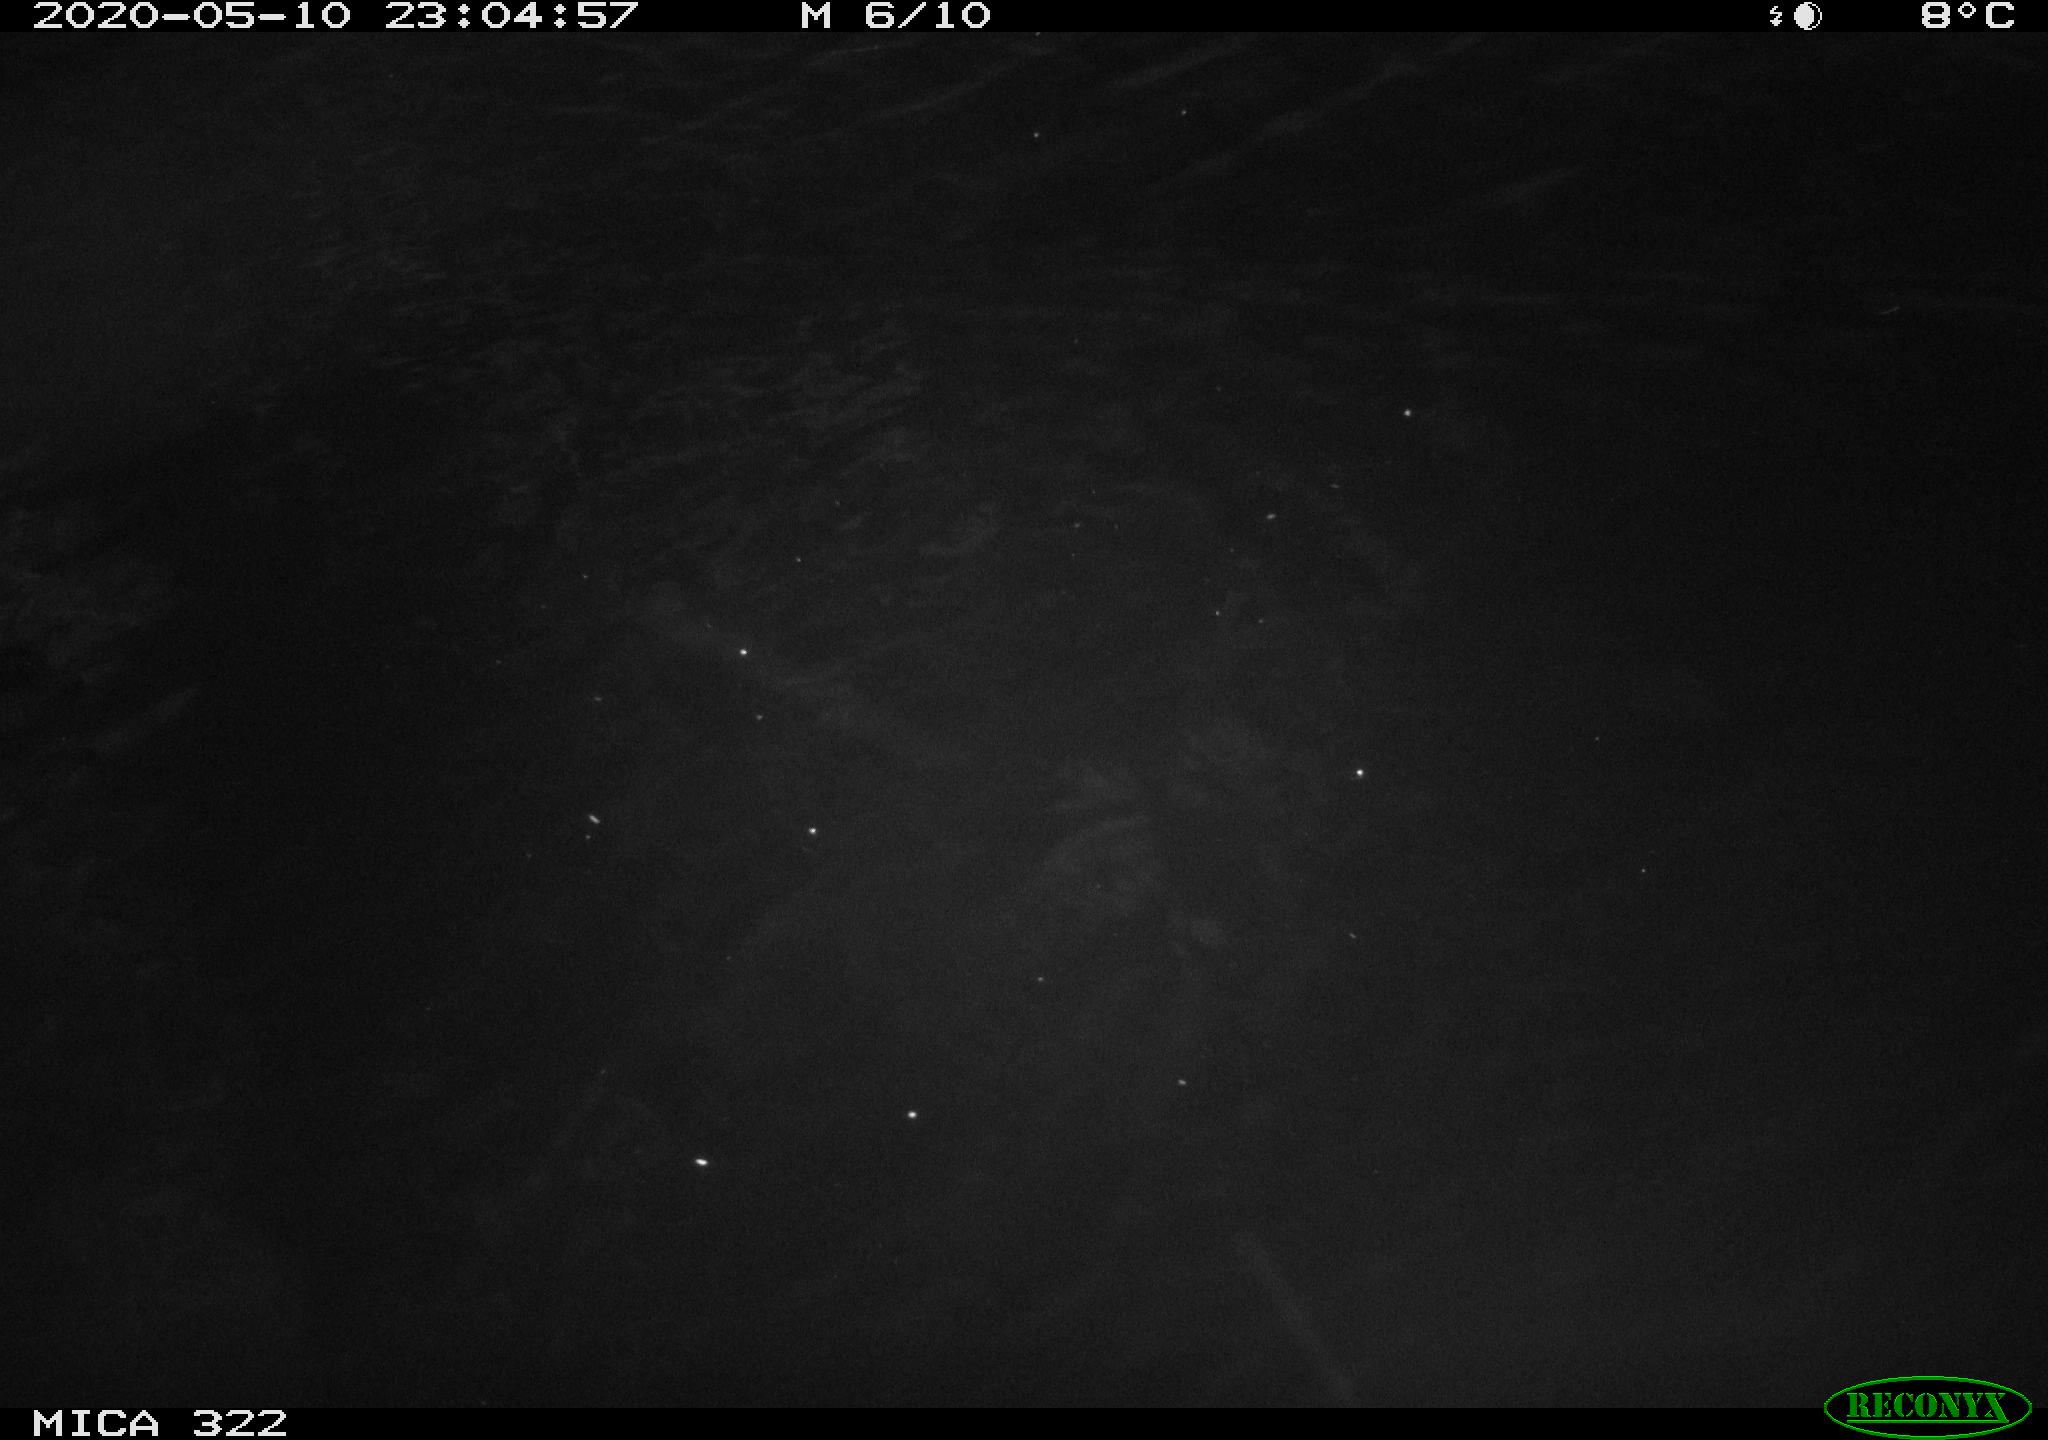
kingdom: Animalia
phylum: Chordata
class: Aves
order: Gruiformes
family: Rallidae
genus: Fulica
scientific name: Fulica atra
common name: Eurasian coot
